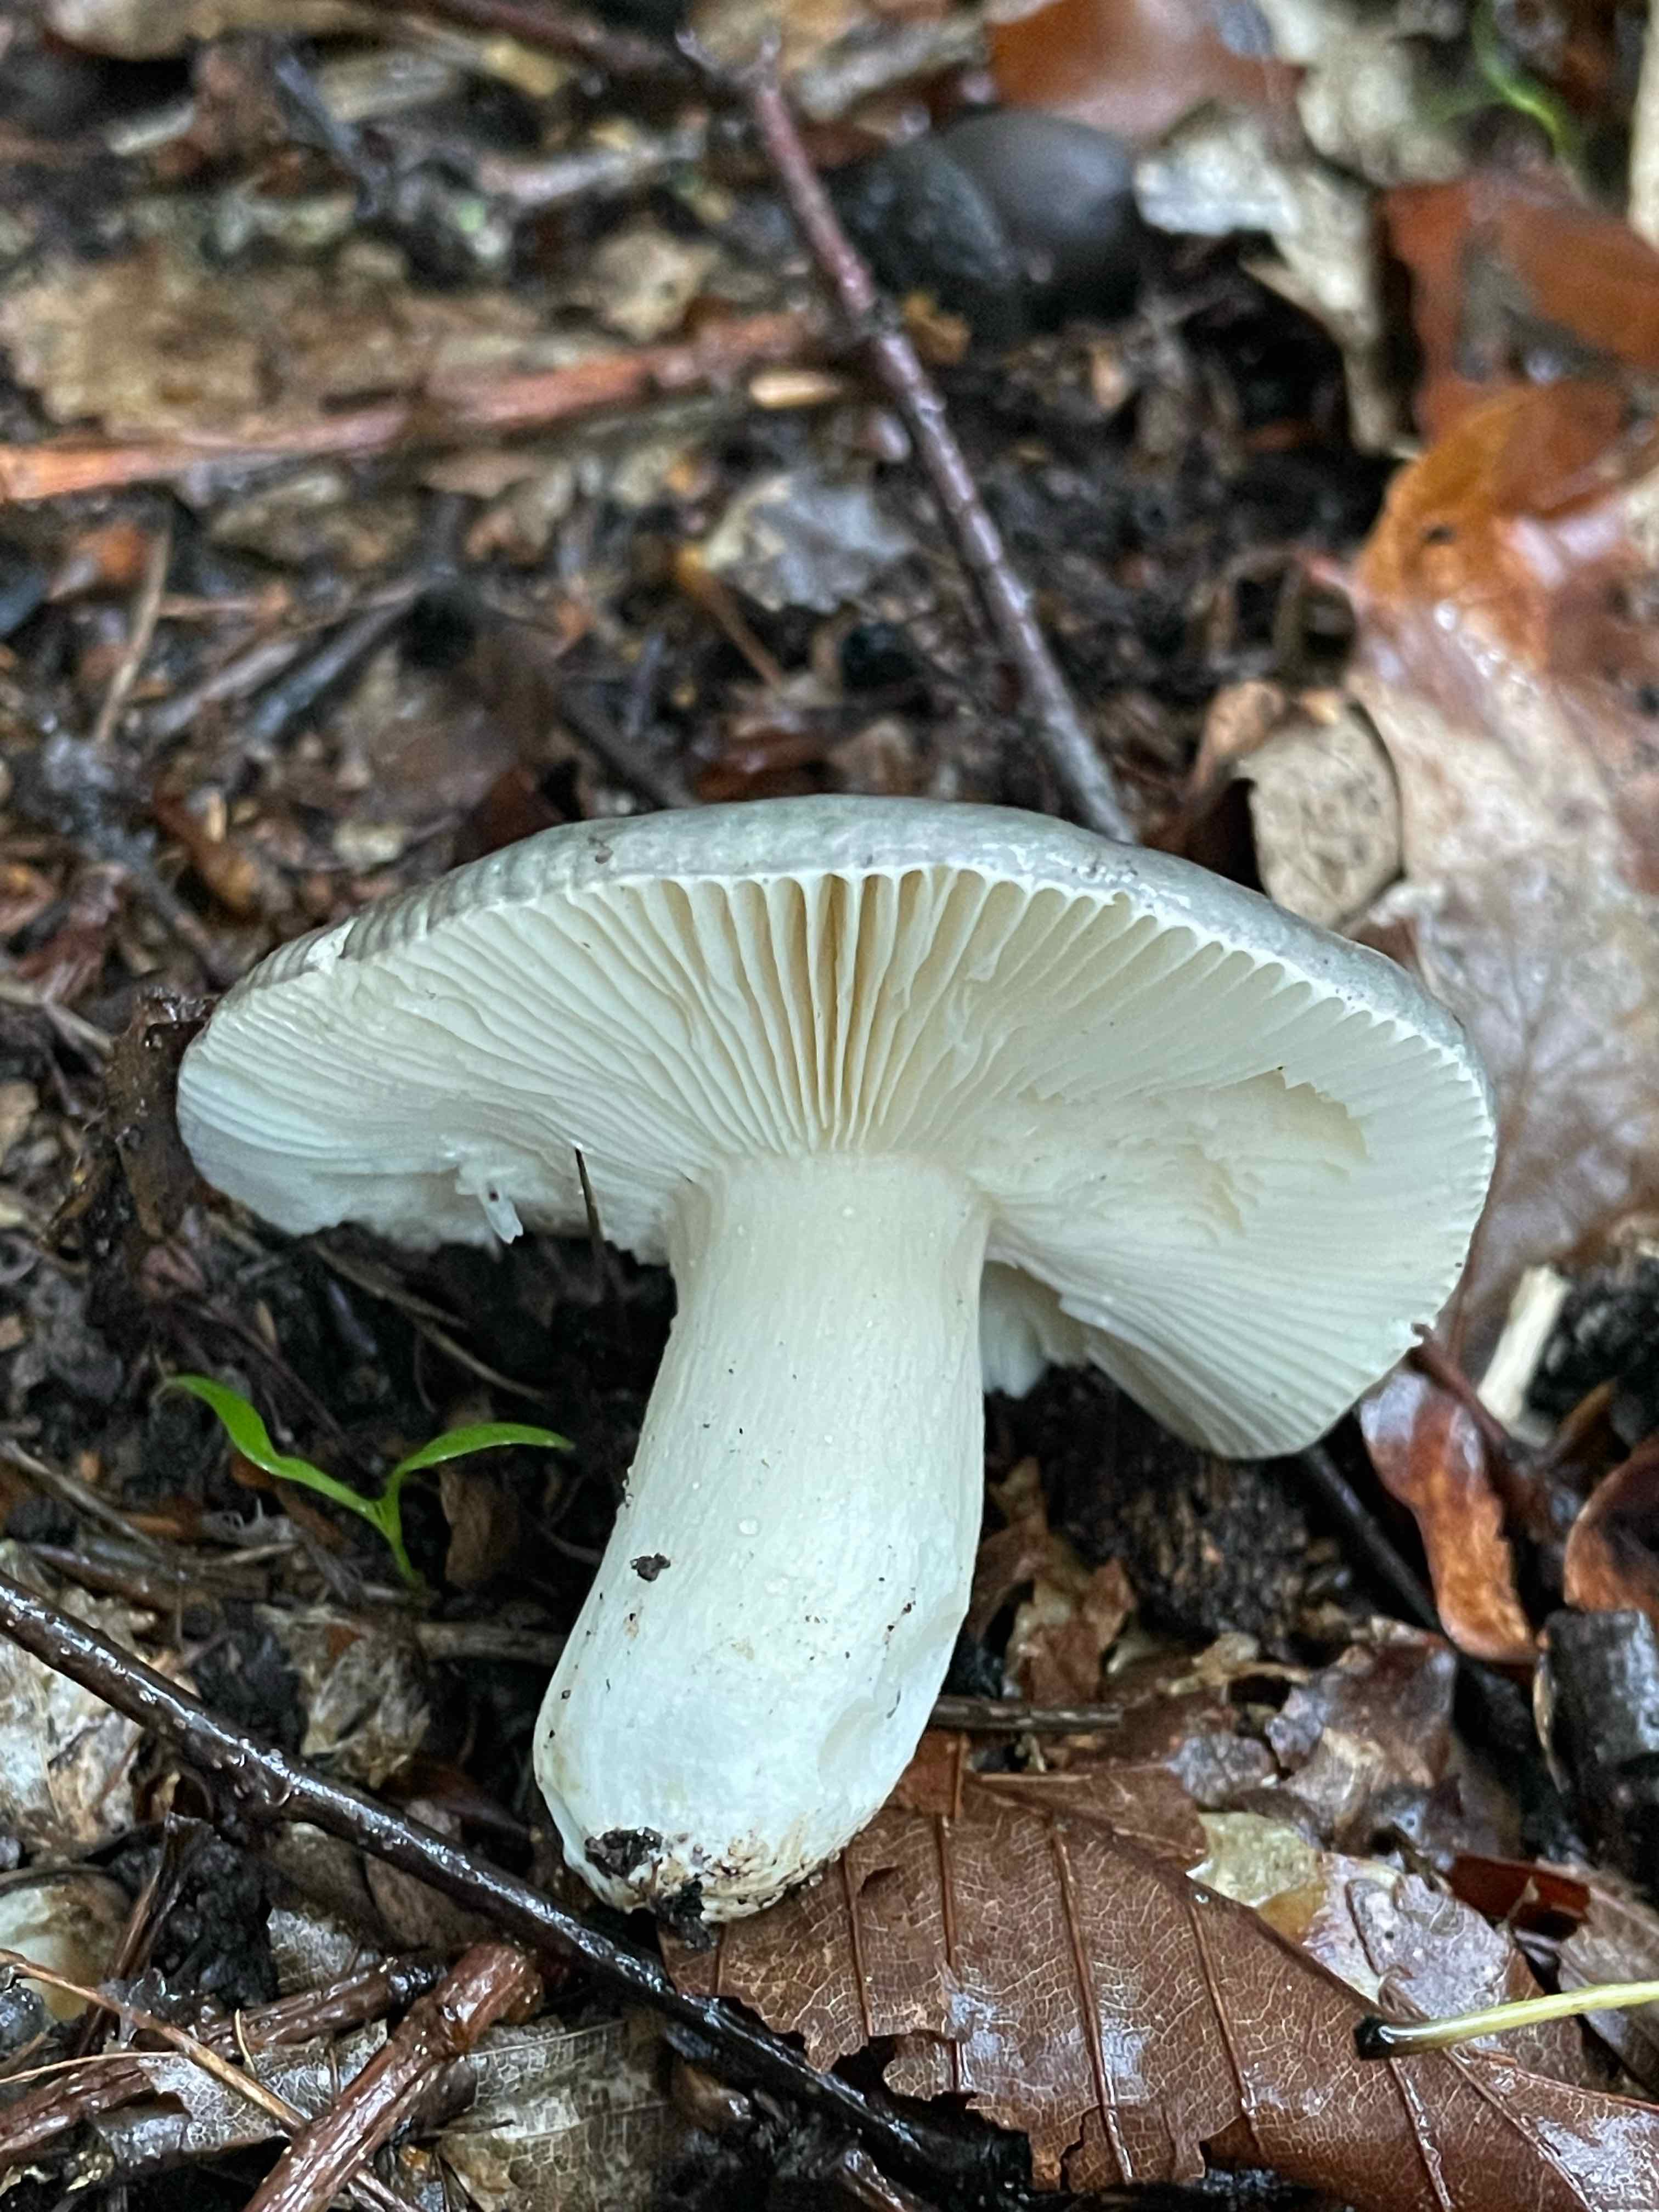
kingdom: Fungi
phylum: Basidiomycota
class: Agaricomycetes
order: Russulales
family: Russulaceae
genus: Russula
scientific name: Russula
